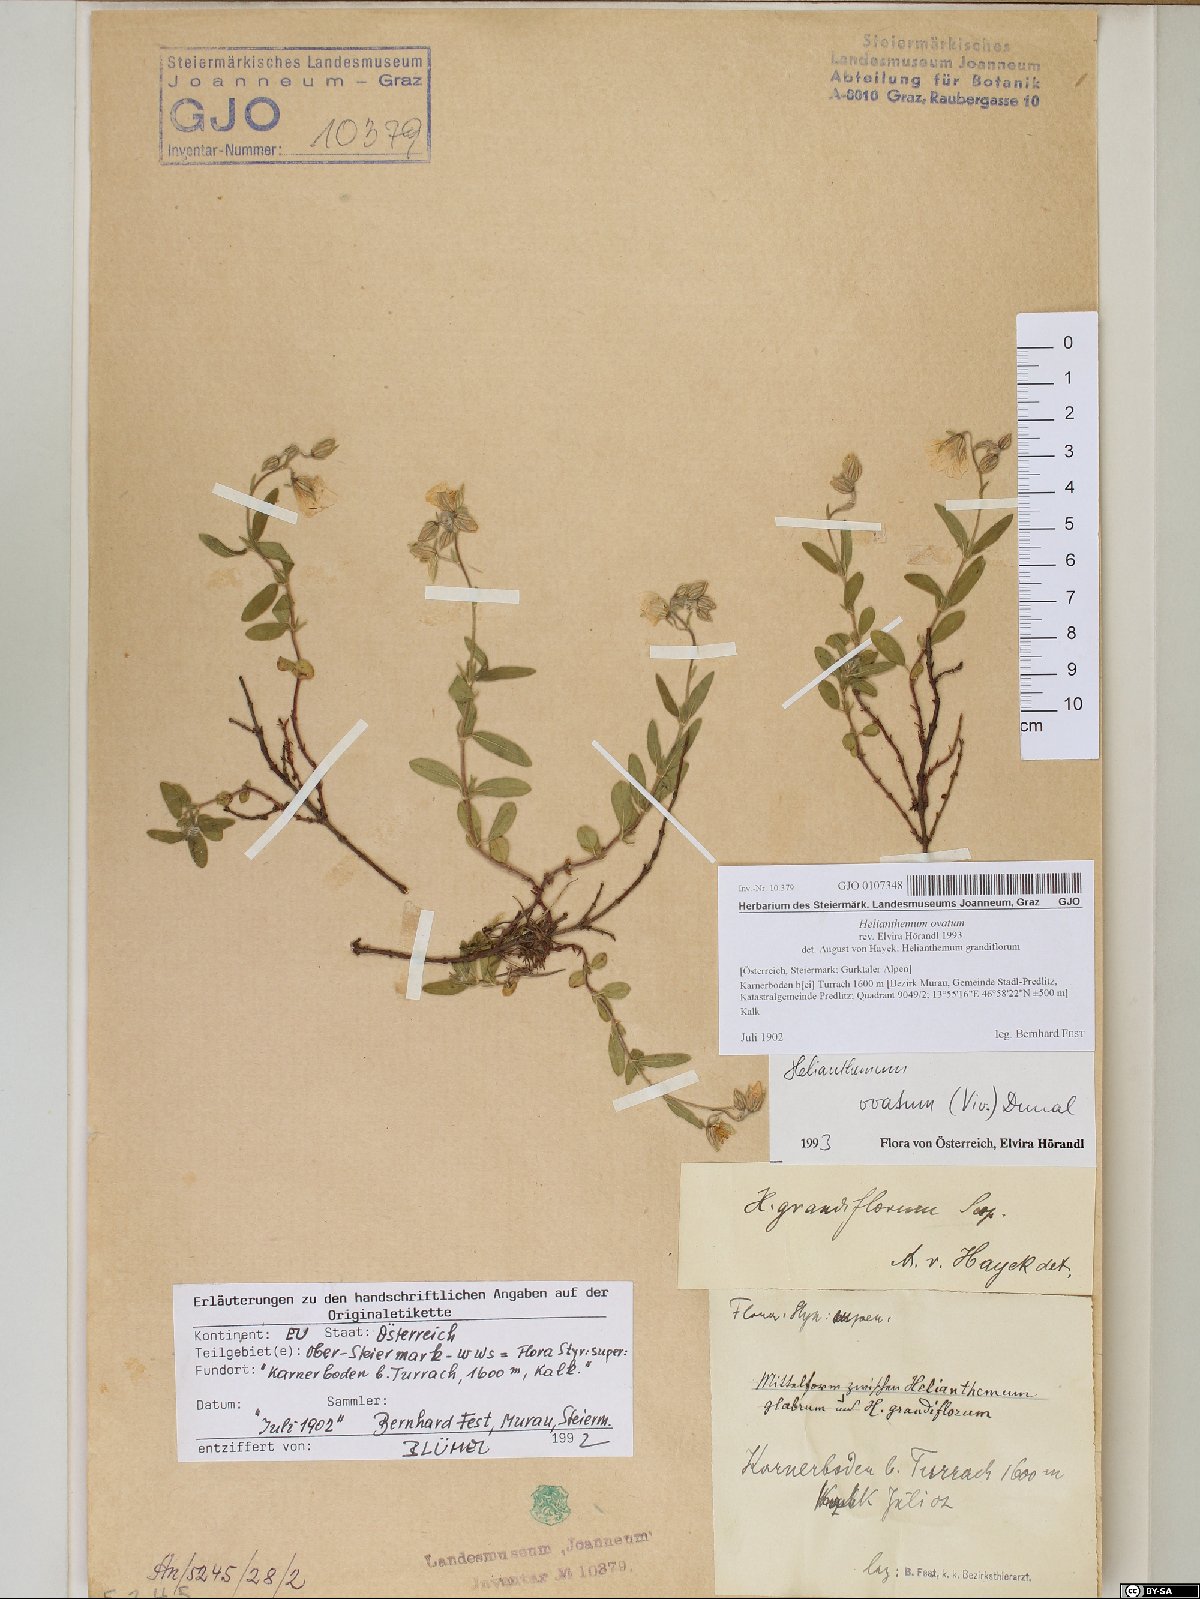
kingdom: Plantae
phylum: Tracheophyta
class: Magnoliopsida
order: Malvales
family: Cistaceae
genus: Helianthemum
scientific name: Helianthemum nummularium
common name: Common rock-rose
